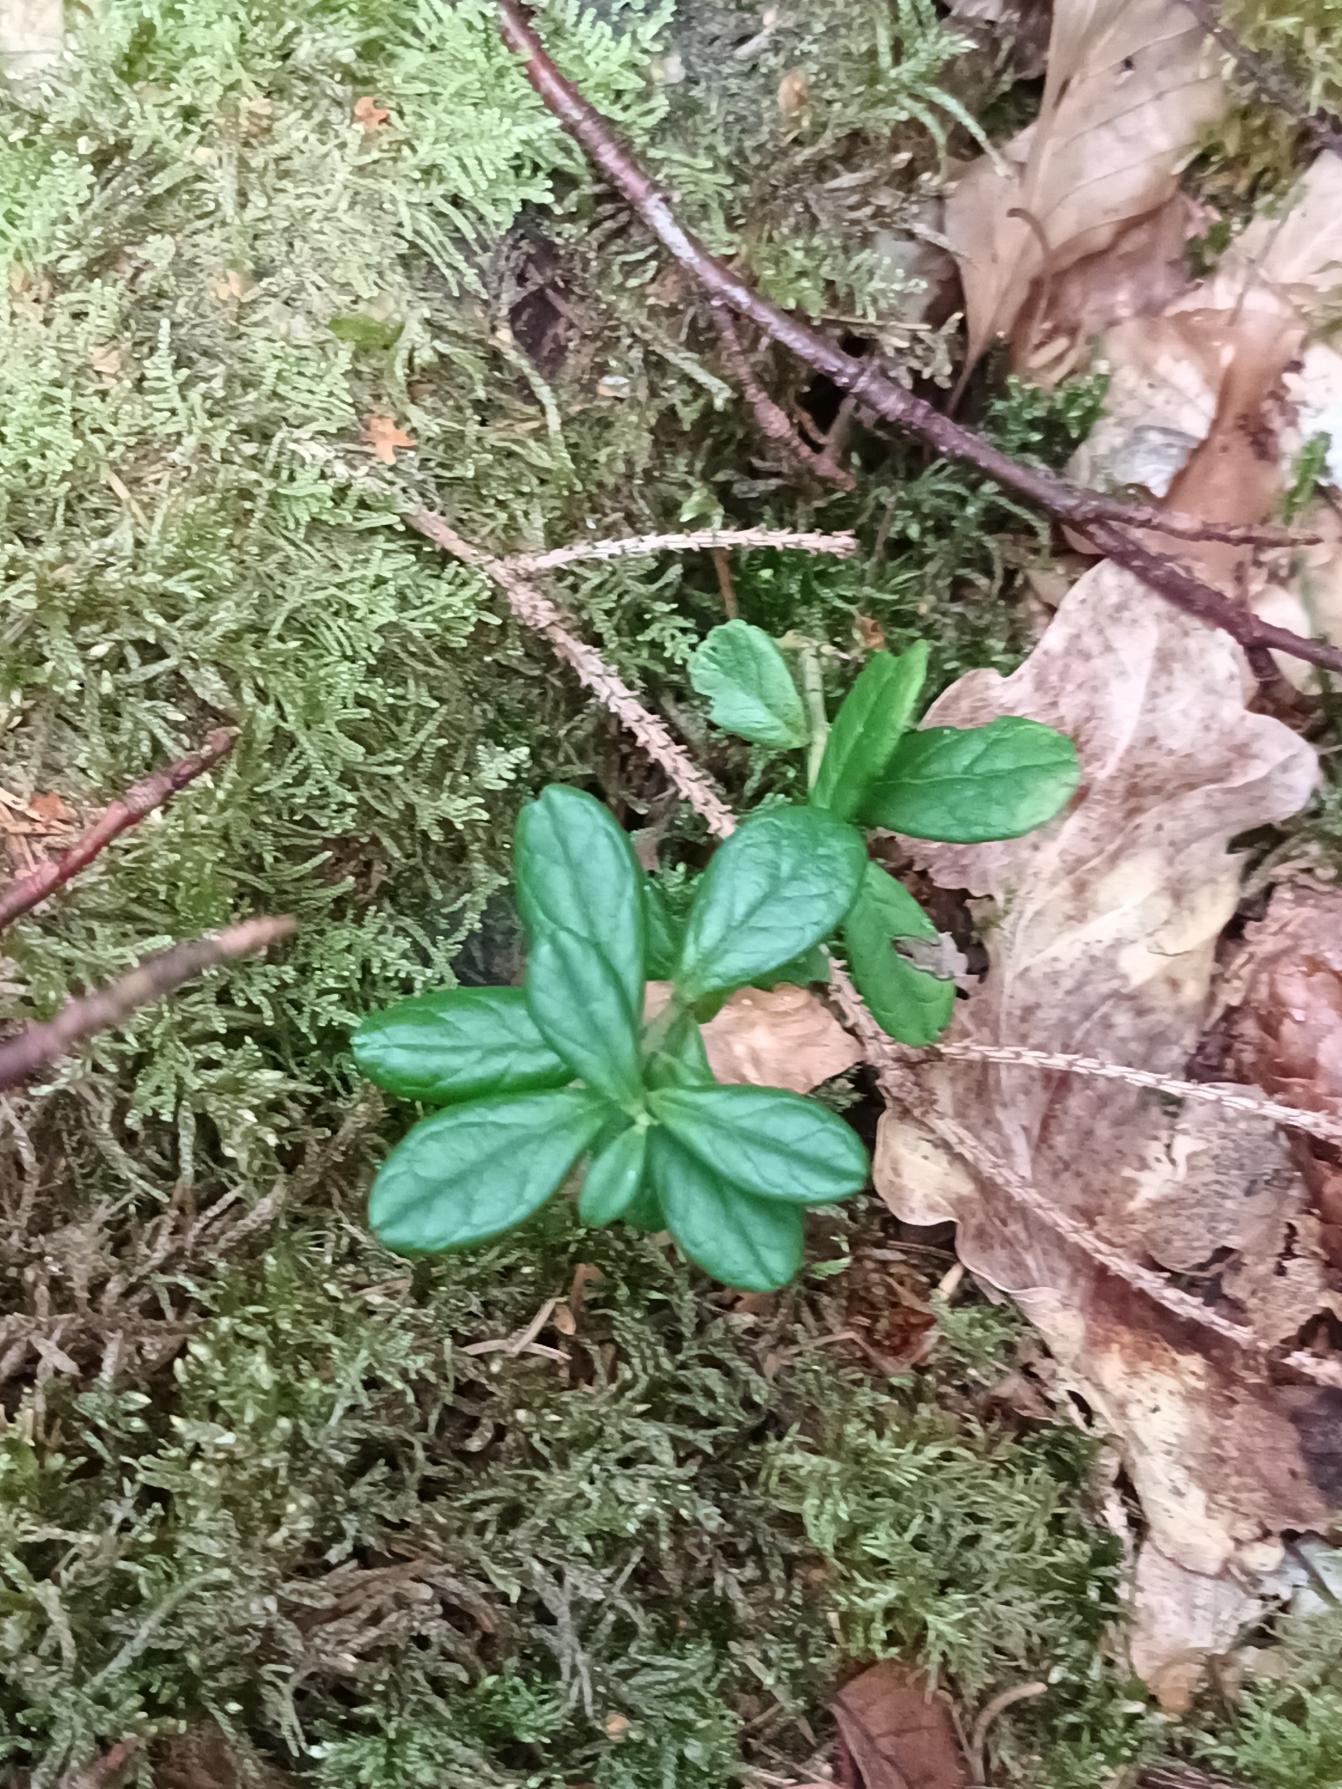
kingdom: Plantae
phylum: Tracheophyta
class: Magnoliopsida
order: Ericales
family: Ericaceae
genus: Vaccinium
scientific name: Vaccinium vitis-idaea
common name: Tyttebær
